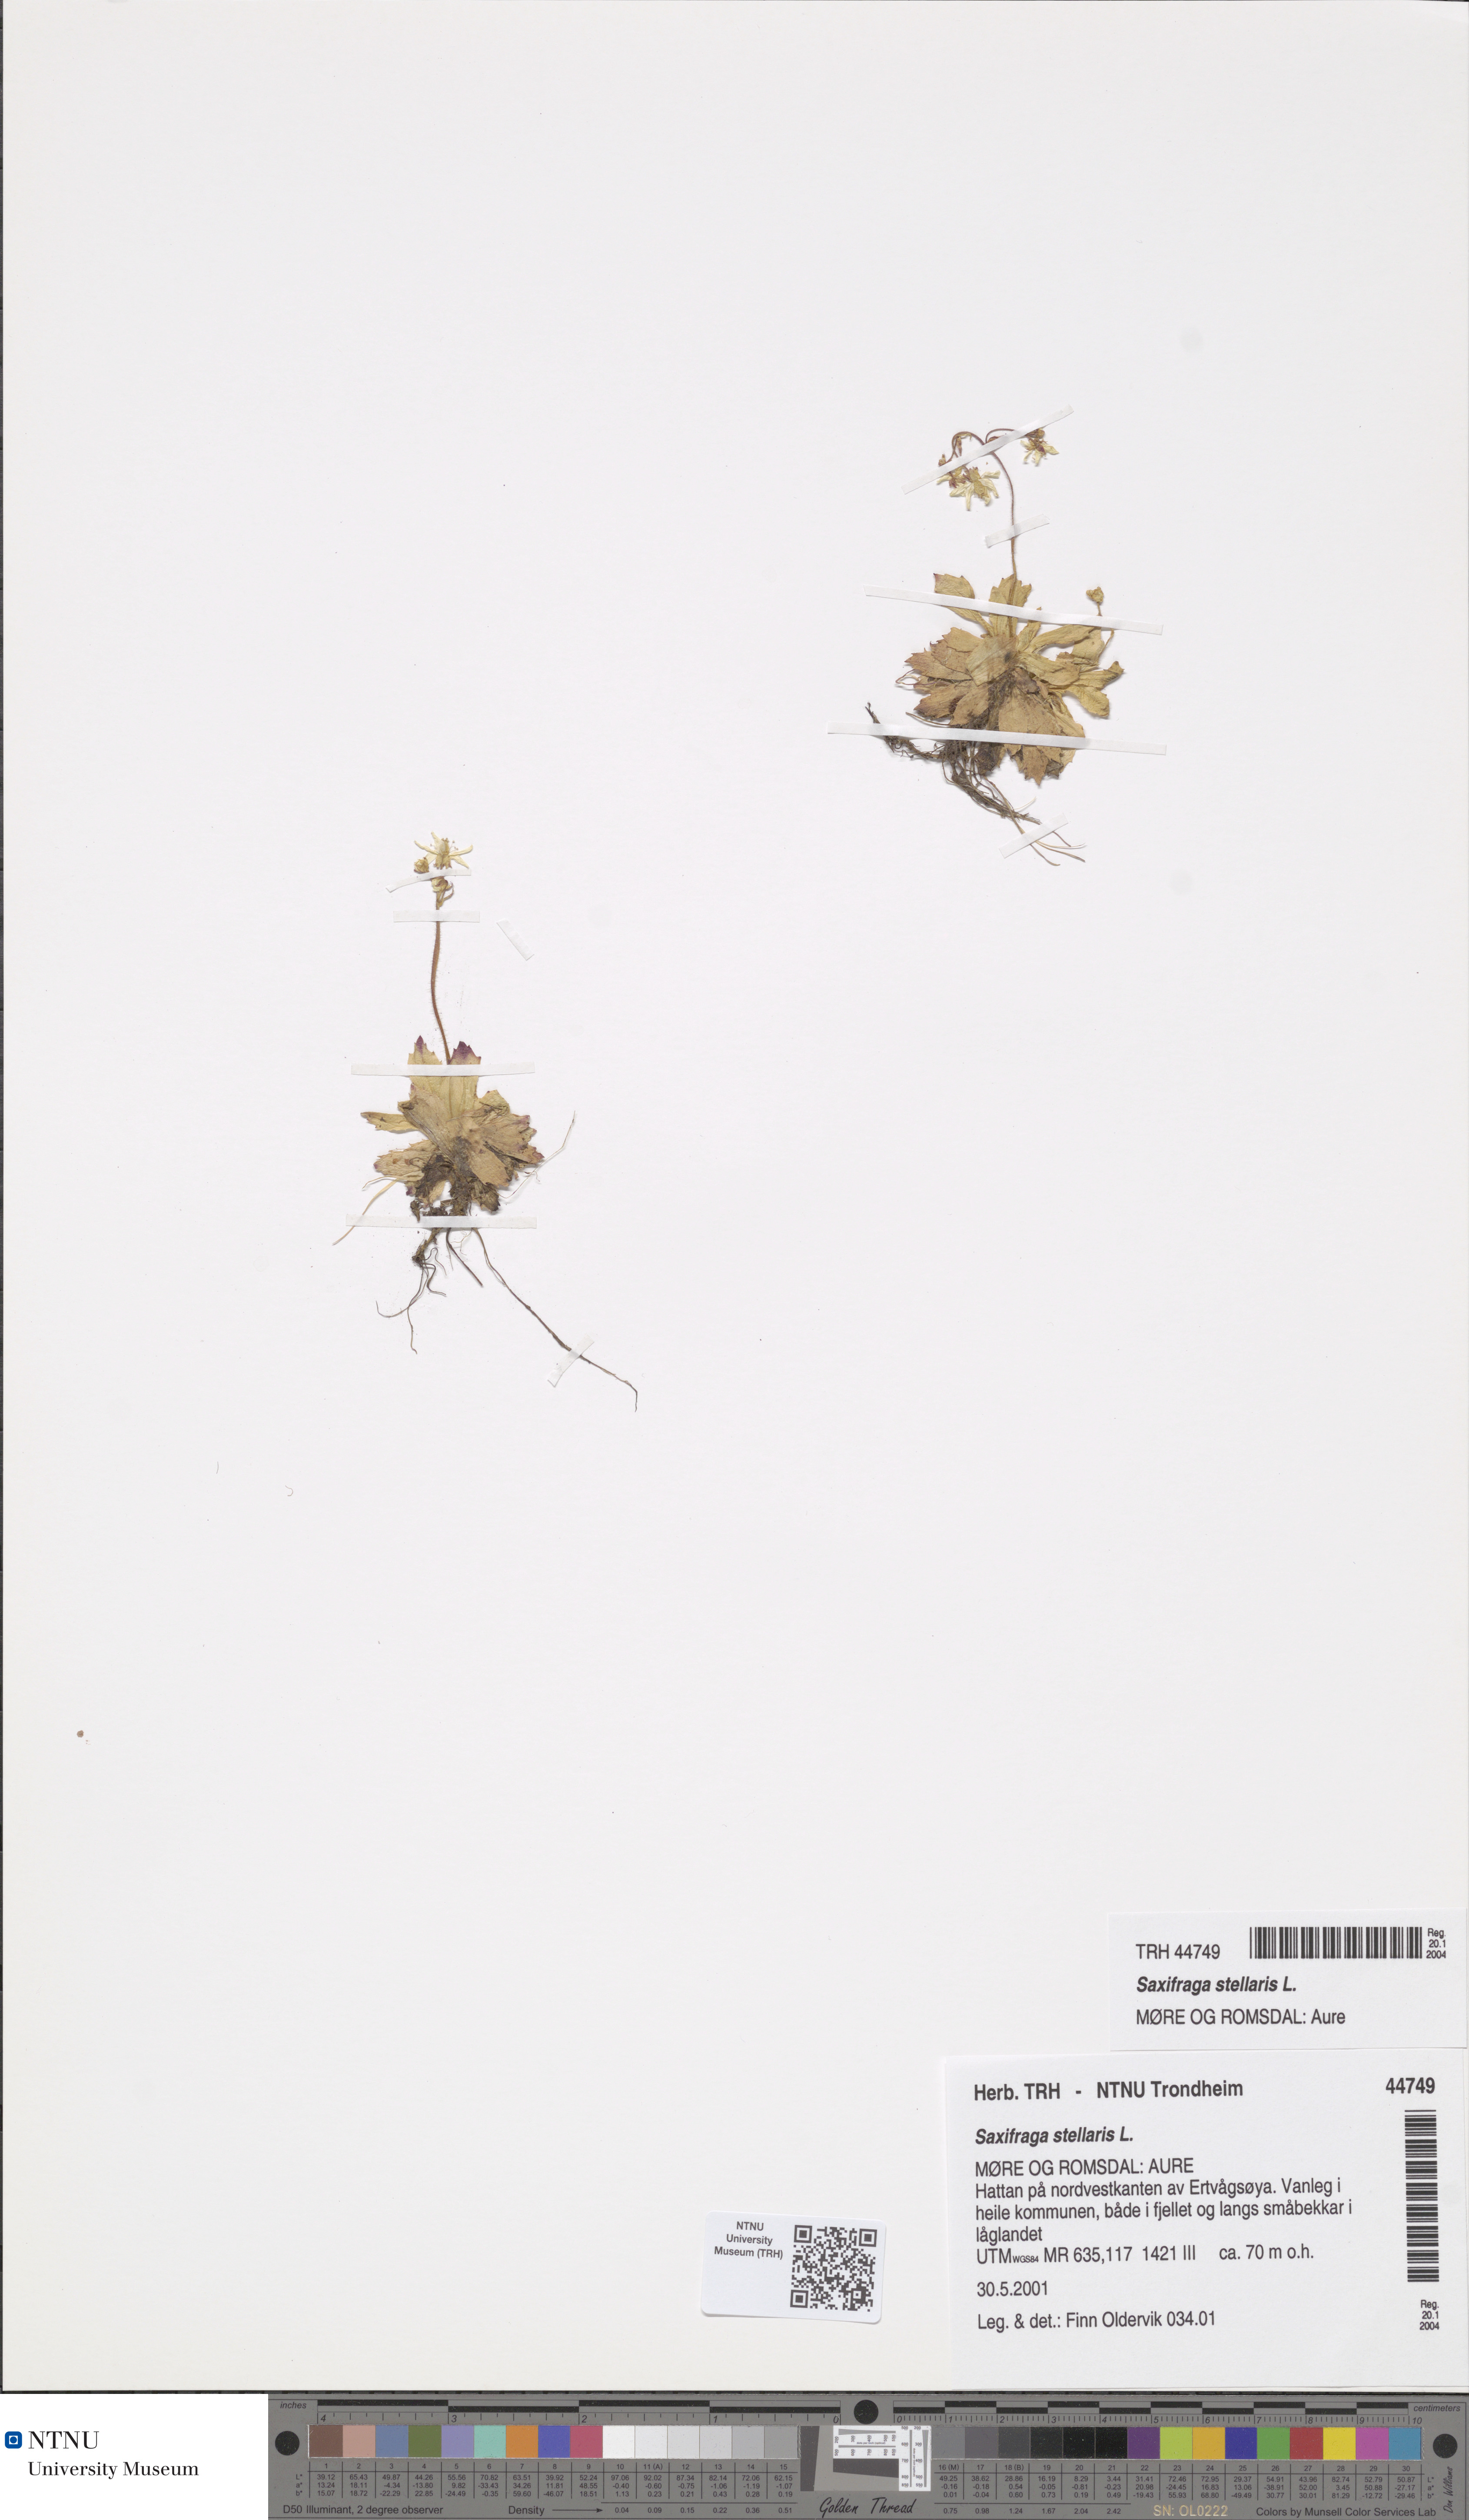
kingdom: Plantae
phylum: Tracheophyta
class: Magnoliopsida
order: Saxifragales
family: Saxifragaceae
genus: Micranthes
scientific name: Micranthes stellaris
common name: Starry saxifrage
